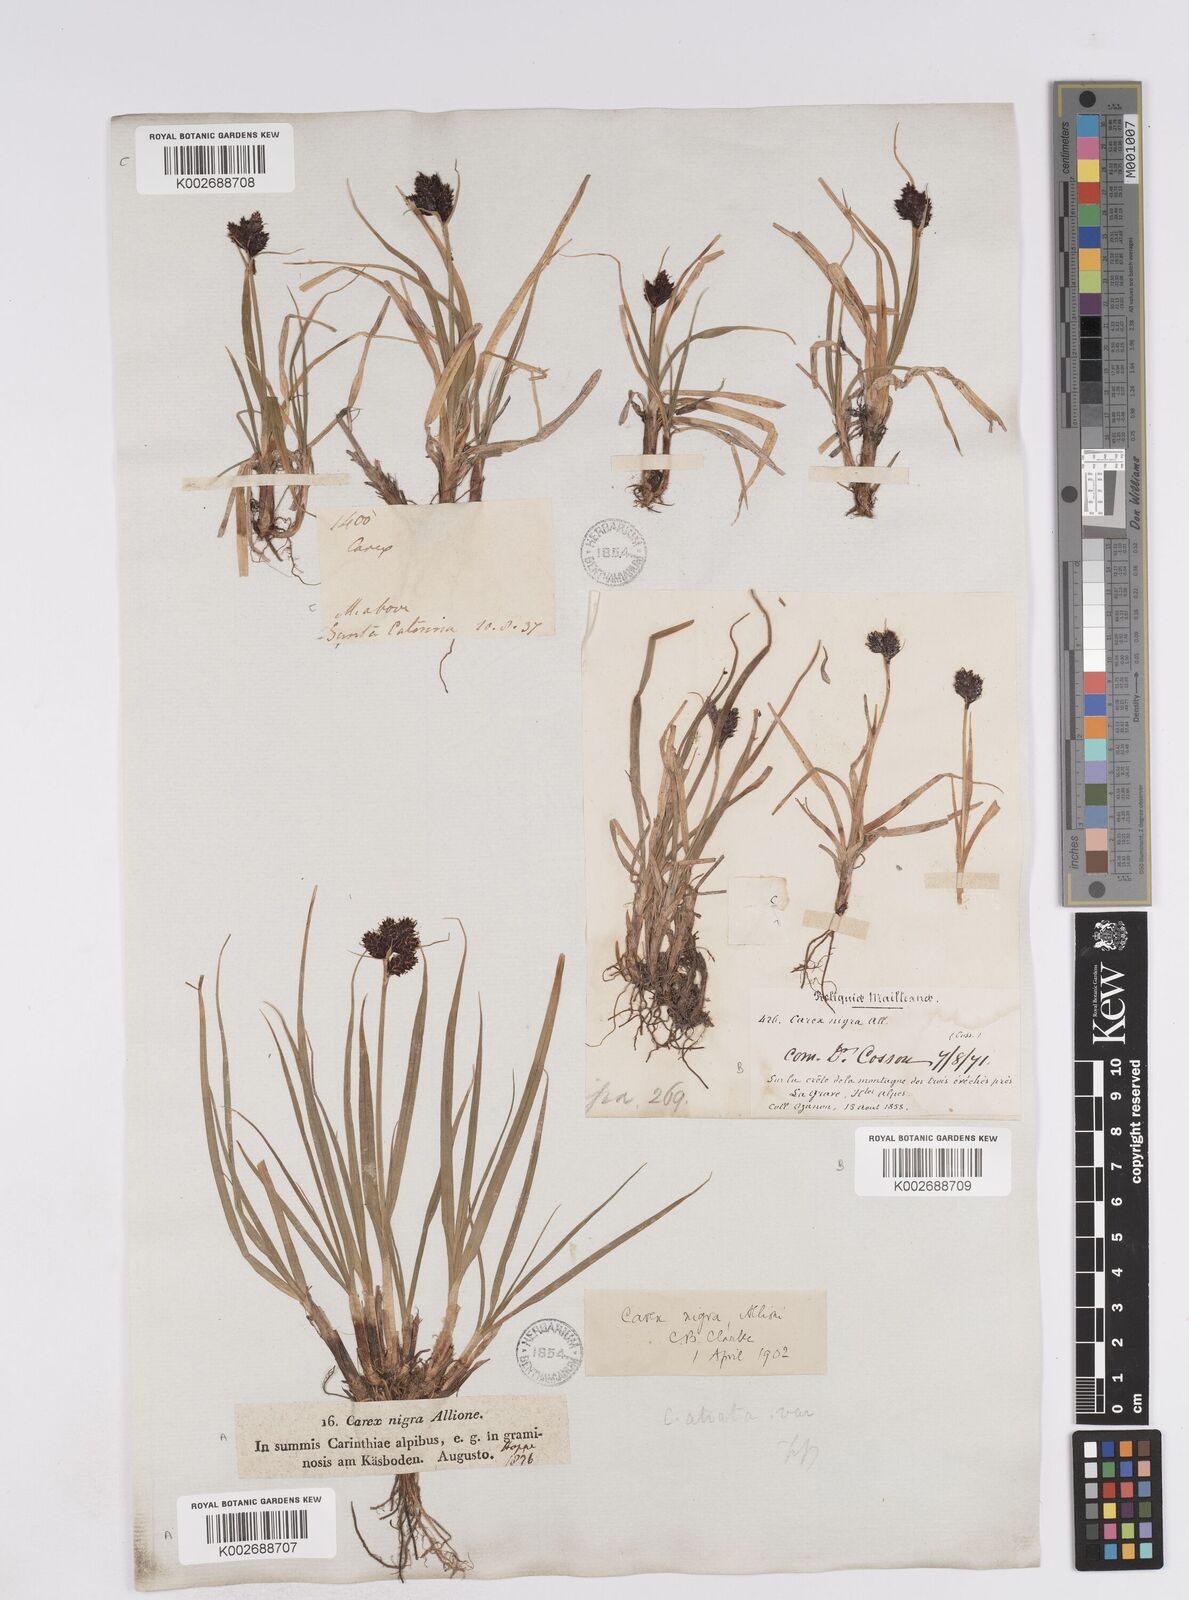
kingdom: Plantae
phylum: Tracheophyta
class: Liliopsida
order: Poales
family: Cyperaceae
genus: Carex
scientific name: Carex parviflora
